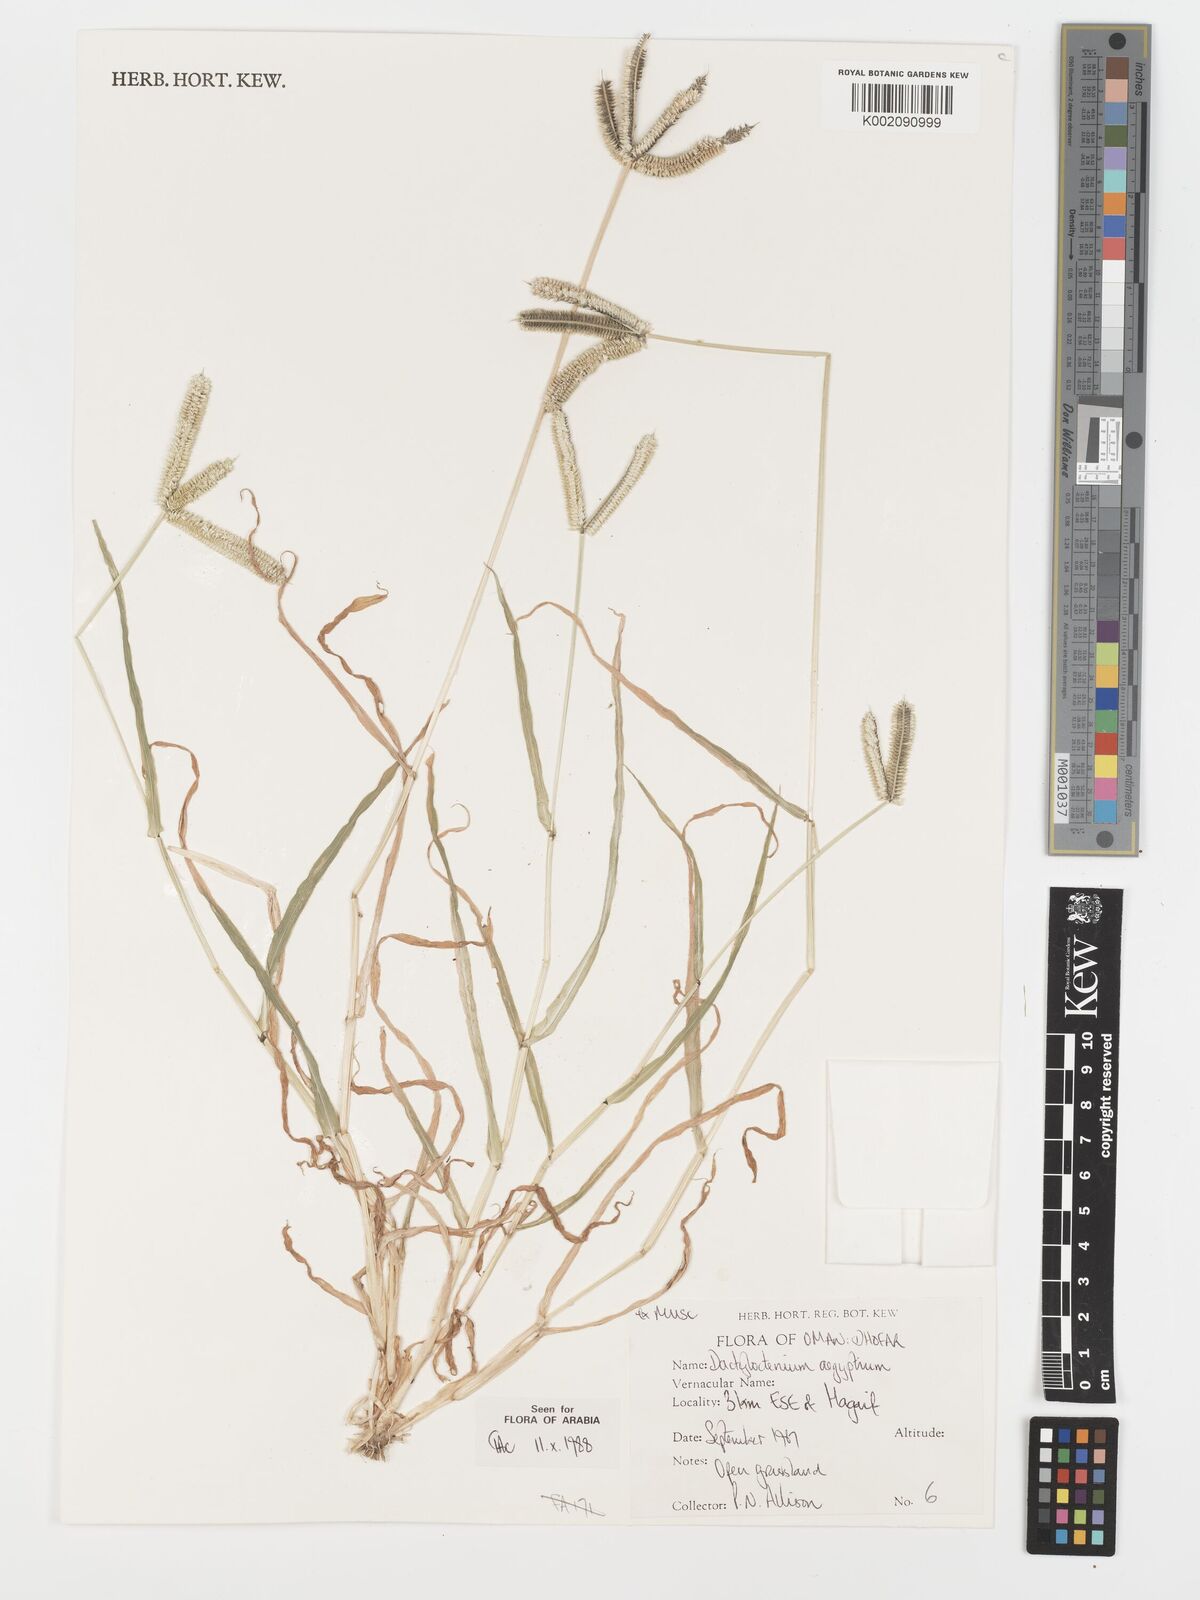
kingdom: Plantae
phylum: Tracheophyta
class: Liliopsida
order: Poales
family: Poaceae
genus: Dactyloctenium
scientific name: Dactyloctenium aegyptium
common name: Egyptian grass
